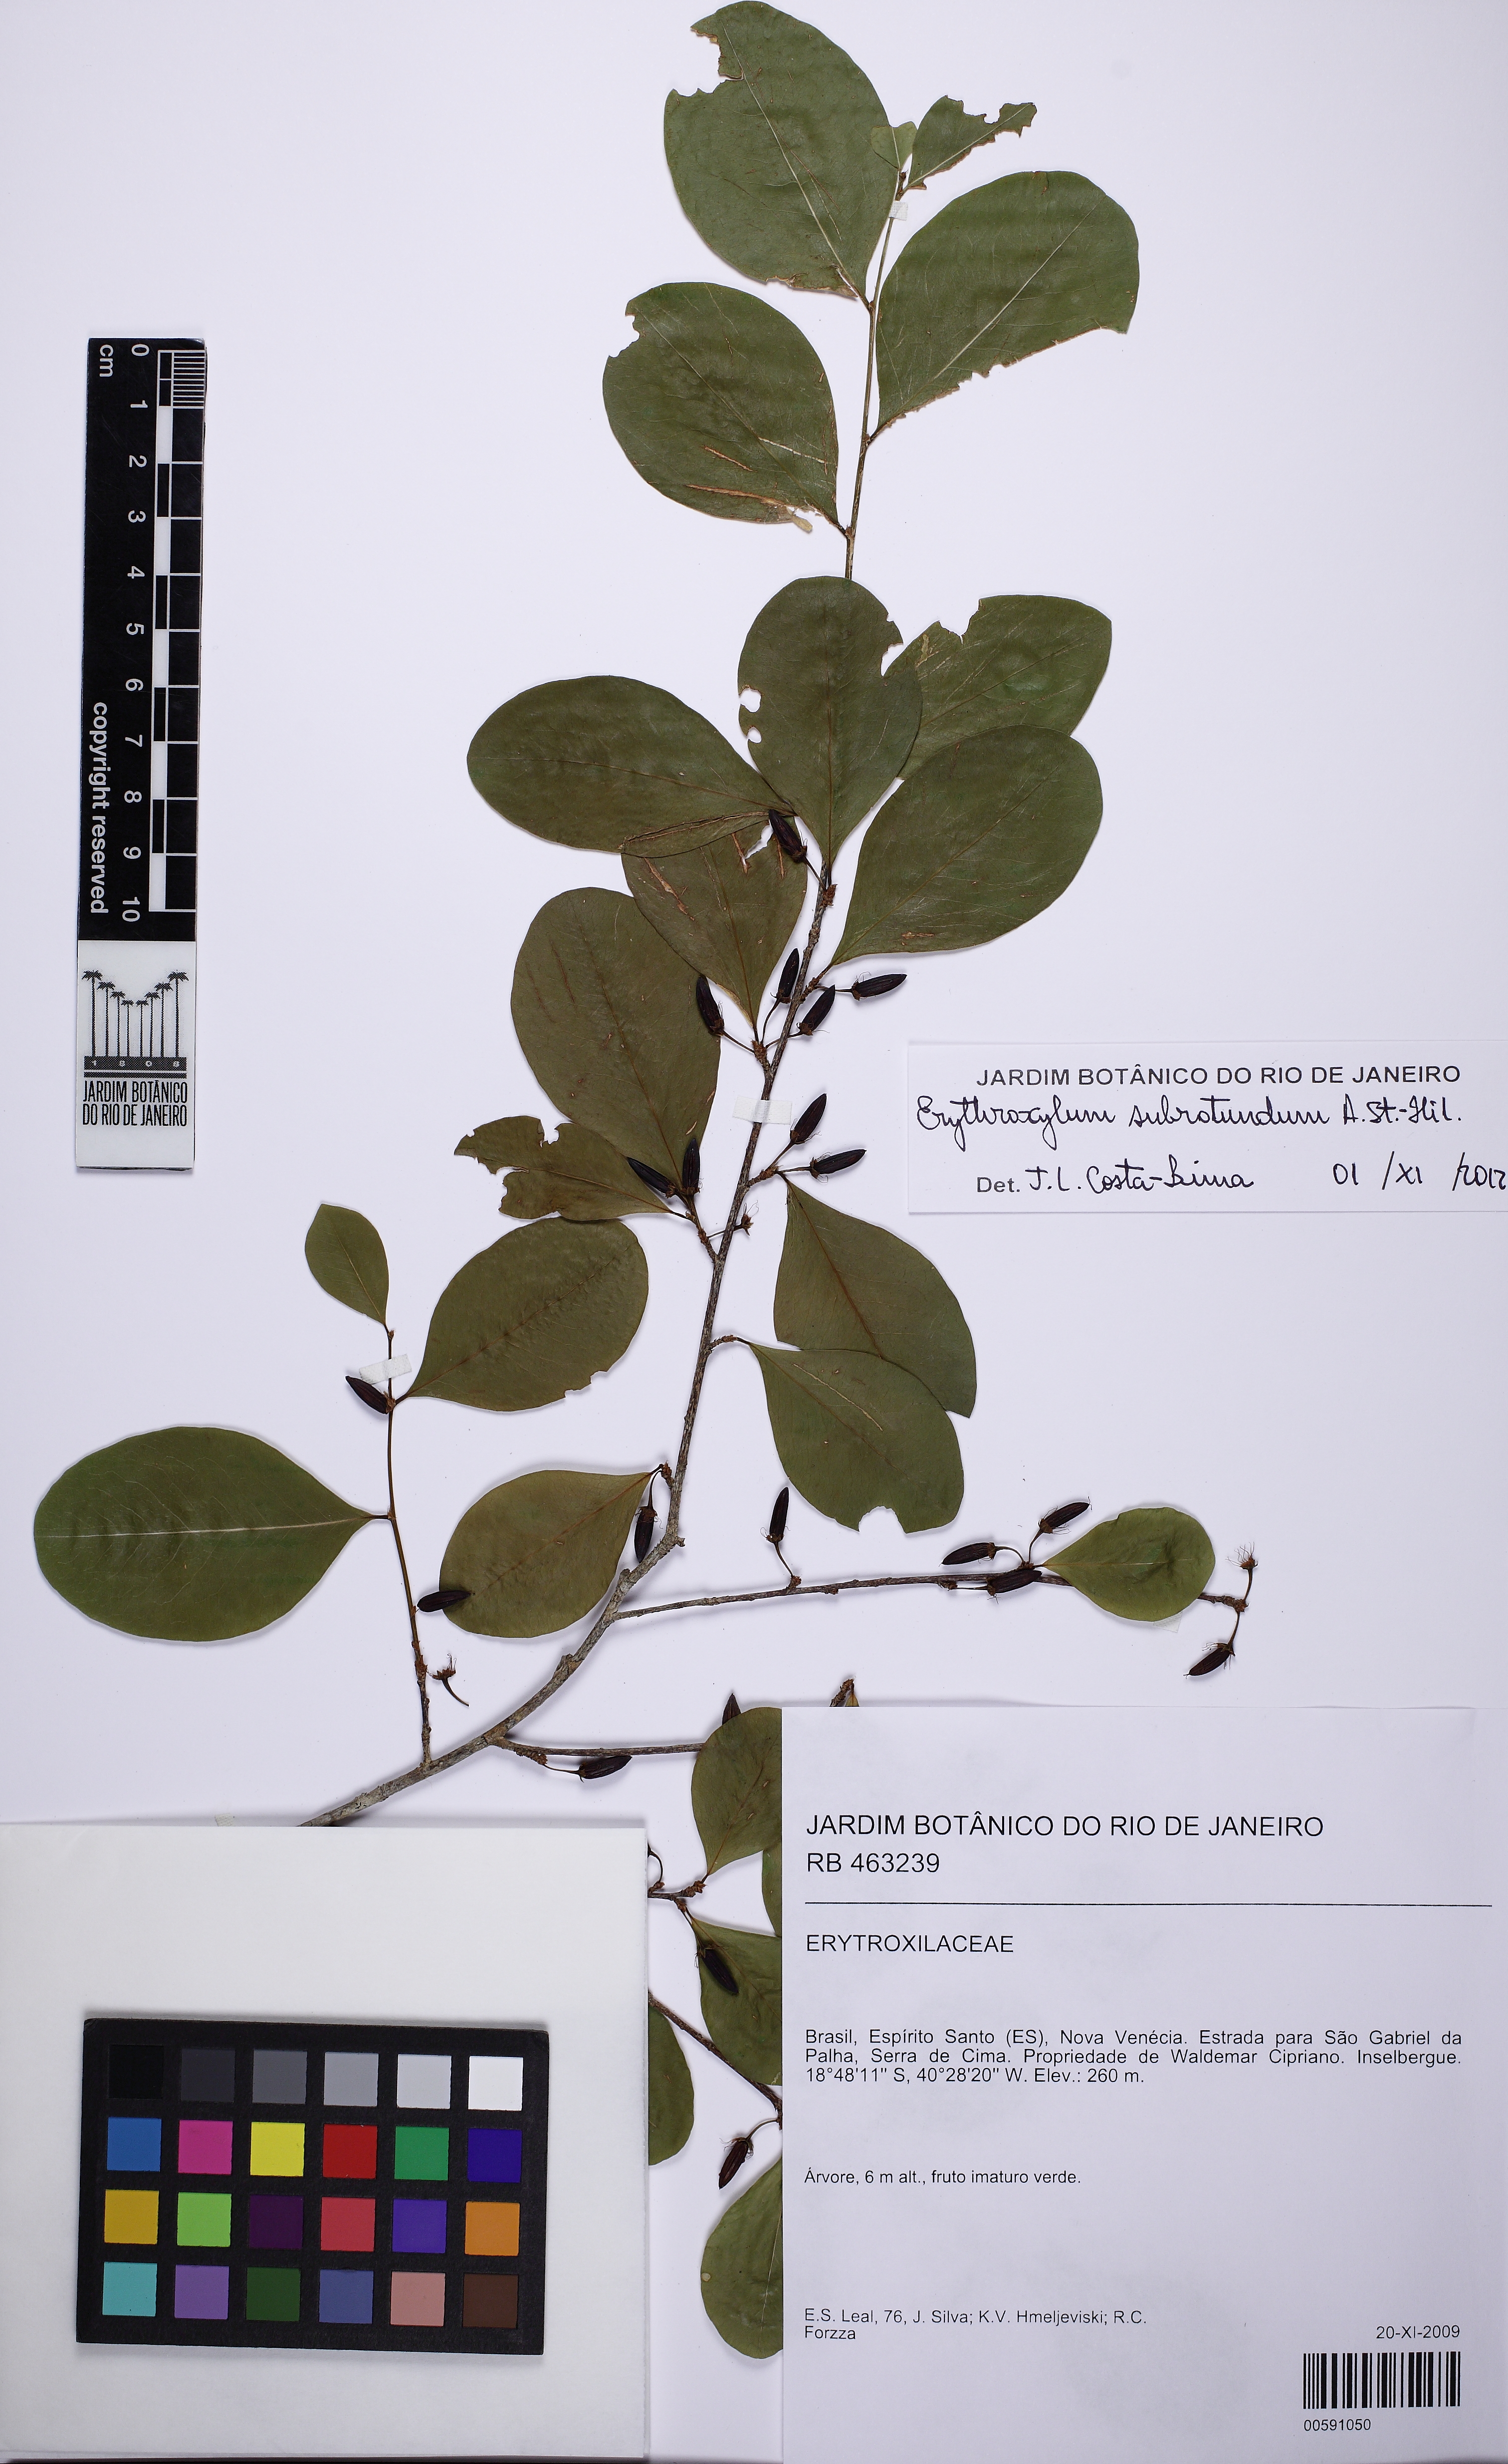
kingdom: Plantae
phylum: Tracheophyta
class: Magnoliopsida
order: Malpighiales
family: Erythroxylaceae
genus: Erythroxylum
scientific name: Erythroxylum subrotundum
